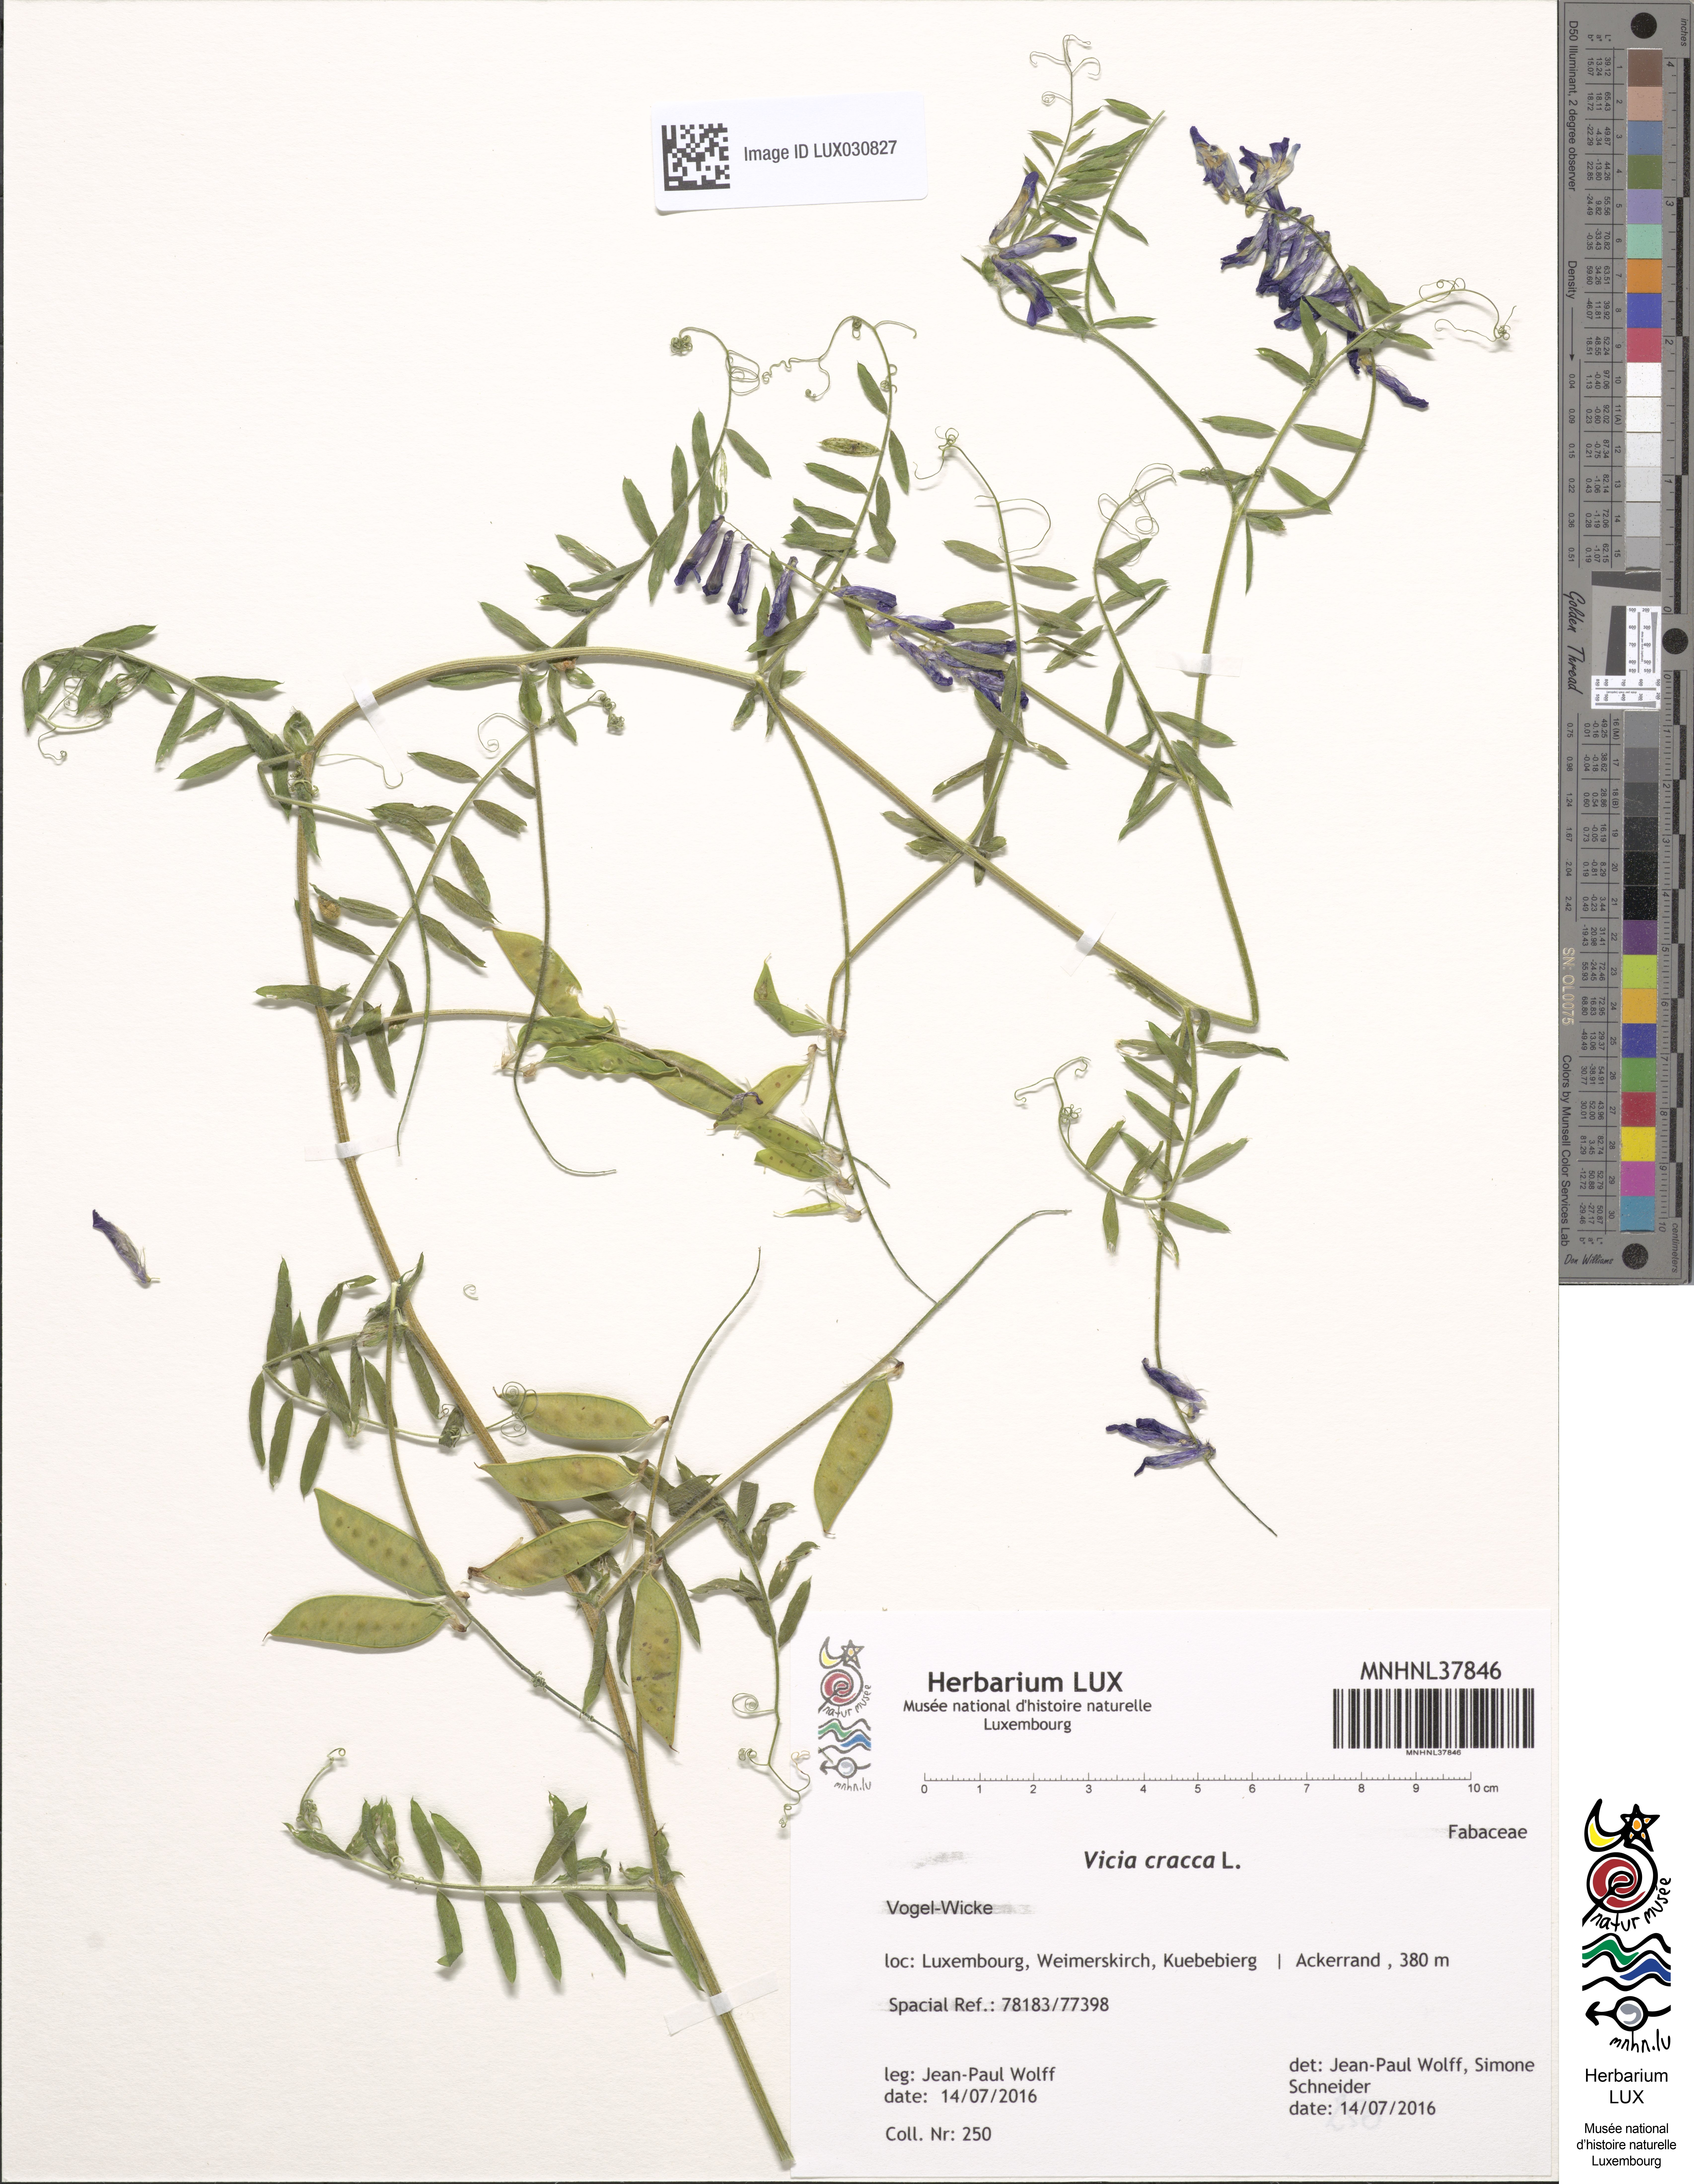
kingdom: Plantae
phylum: Tracheophyta
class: Magnoliopsida
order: Fabales
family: Fabaceae
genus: Vicia
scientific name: Vicia cracca
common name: Bird vetch
